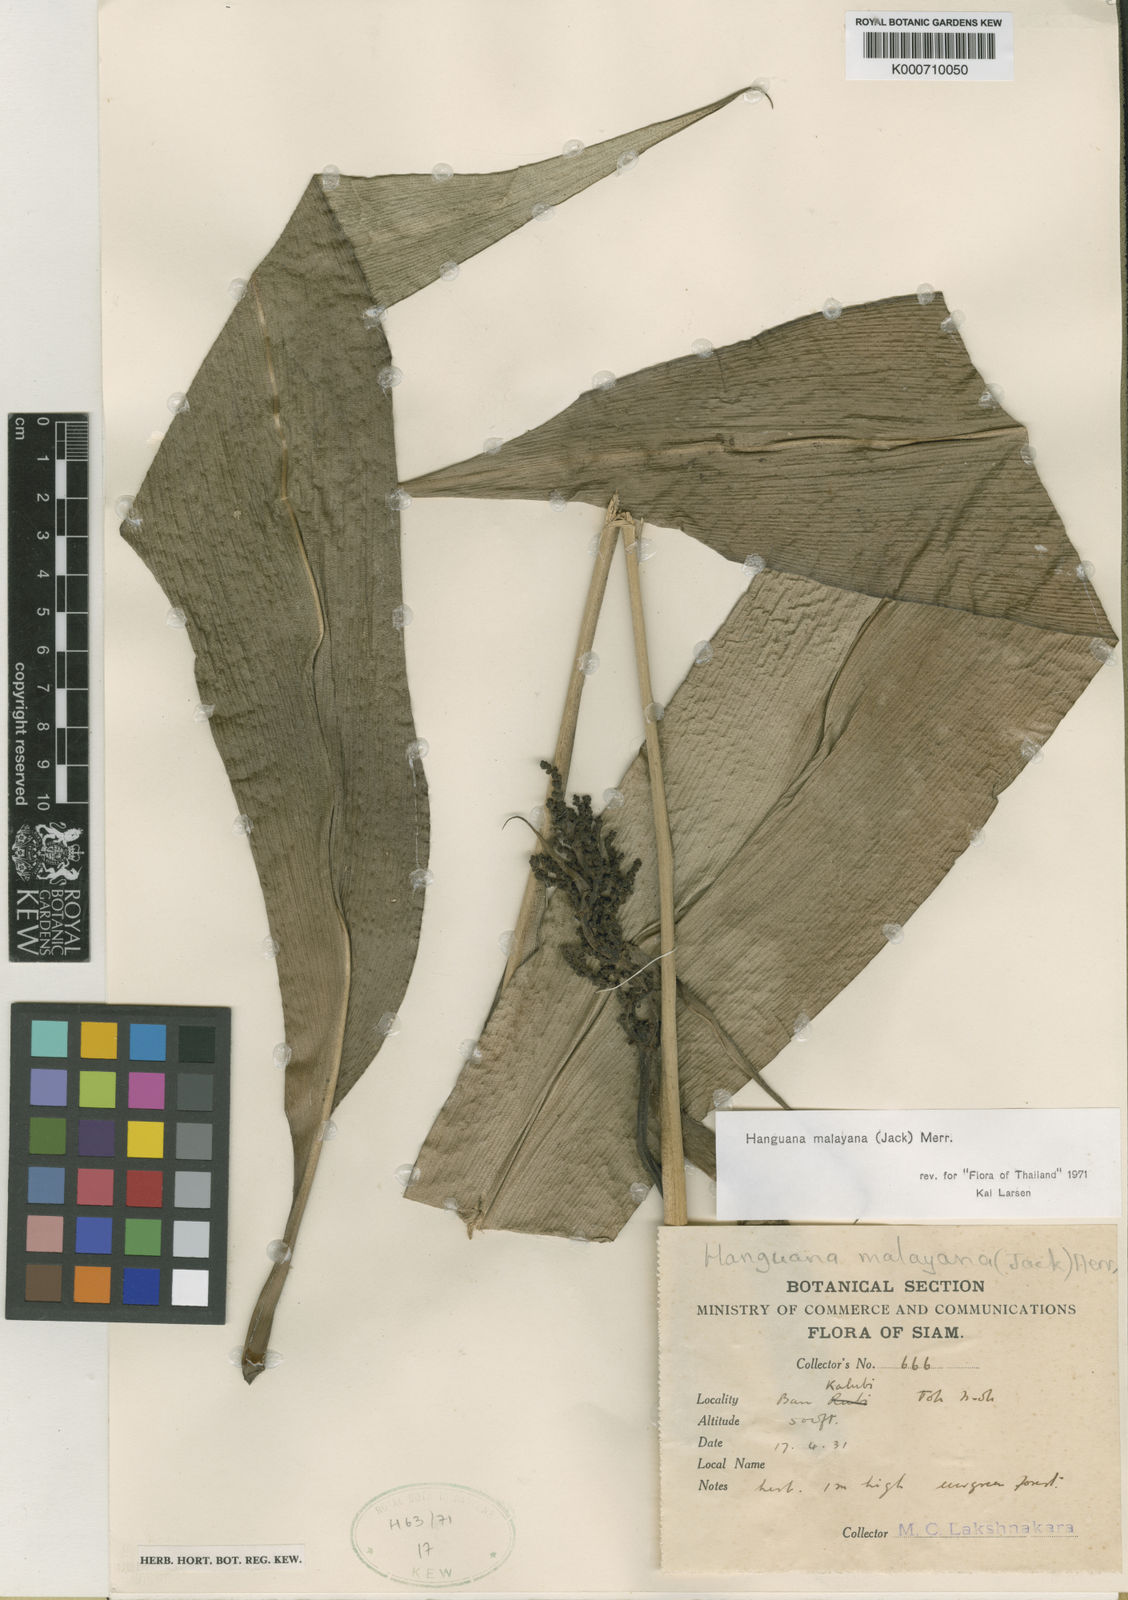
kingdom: Plantae
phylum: Tracheophyta
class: Liliopsida
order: Commelinales
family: Hanguanaceae
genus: Hanguana
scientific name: Hanguana malayana
